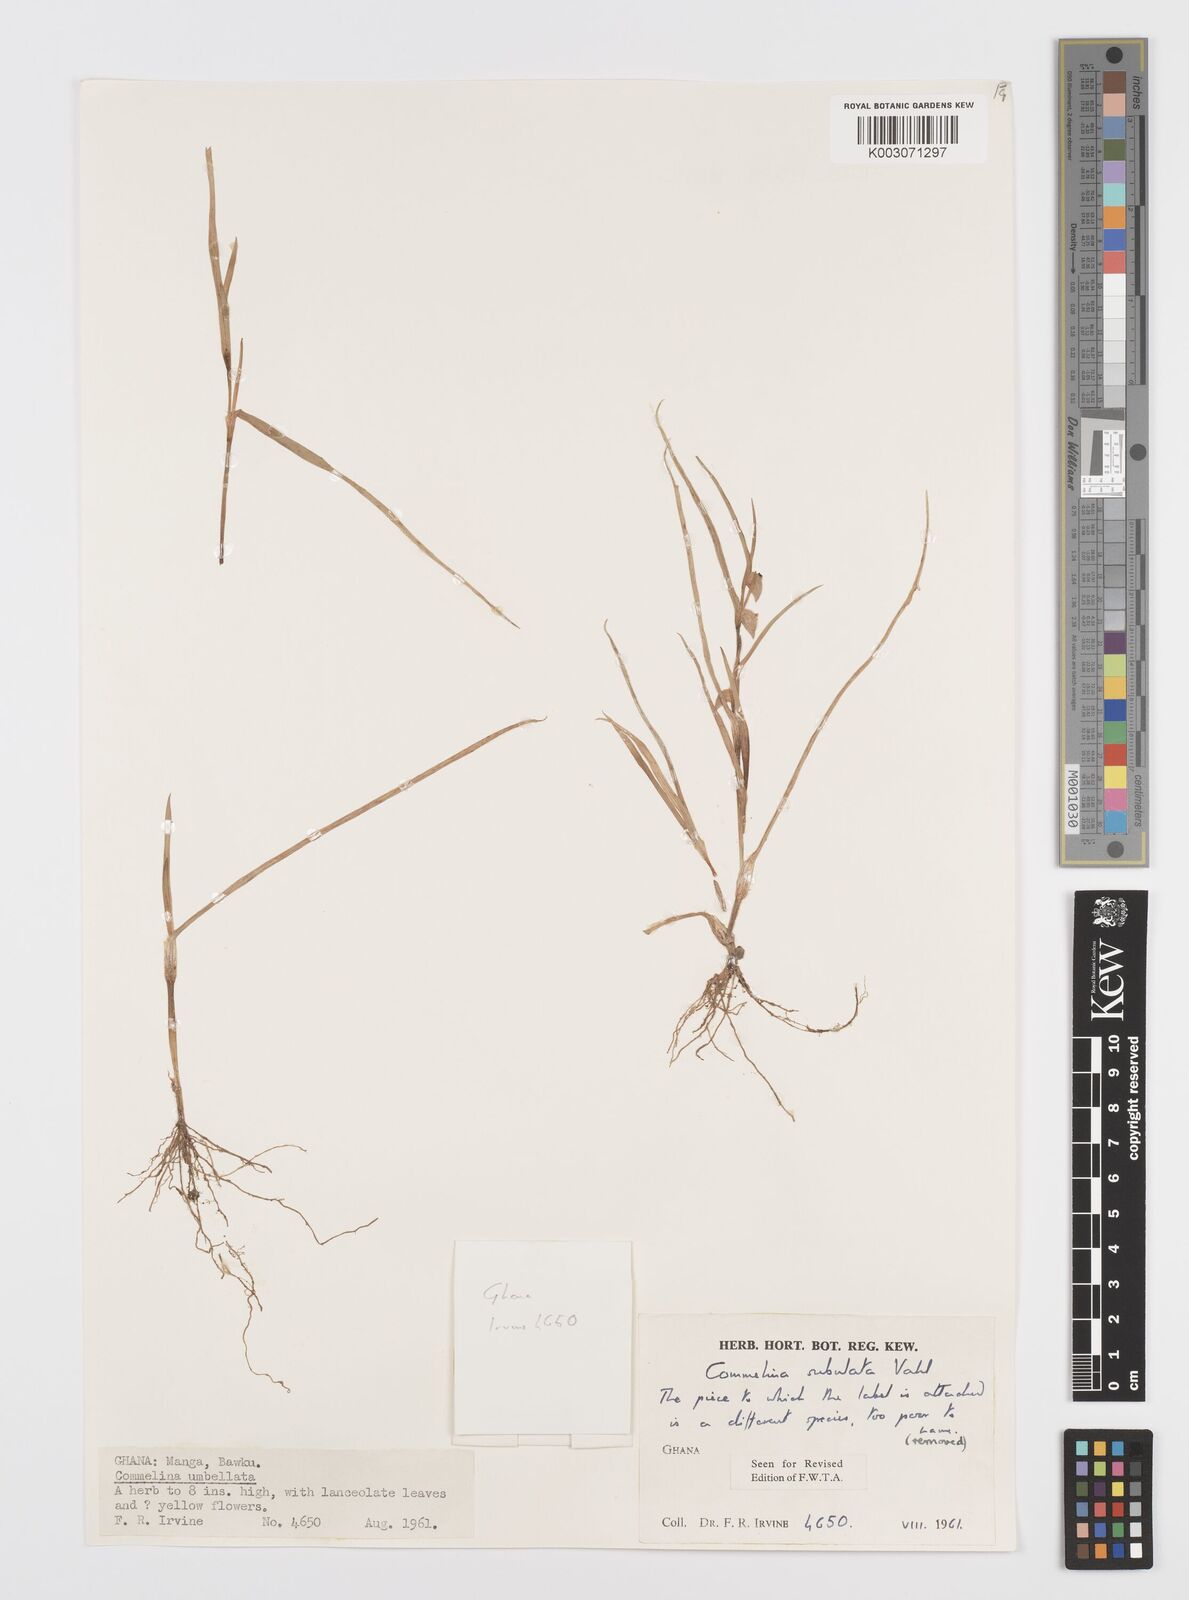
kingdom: Plantae
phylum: Tracheophyta
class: Liliopsida
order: Commelinales
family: Commelinaceae
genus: Commelina
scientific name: Commelina subulata
